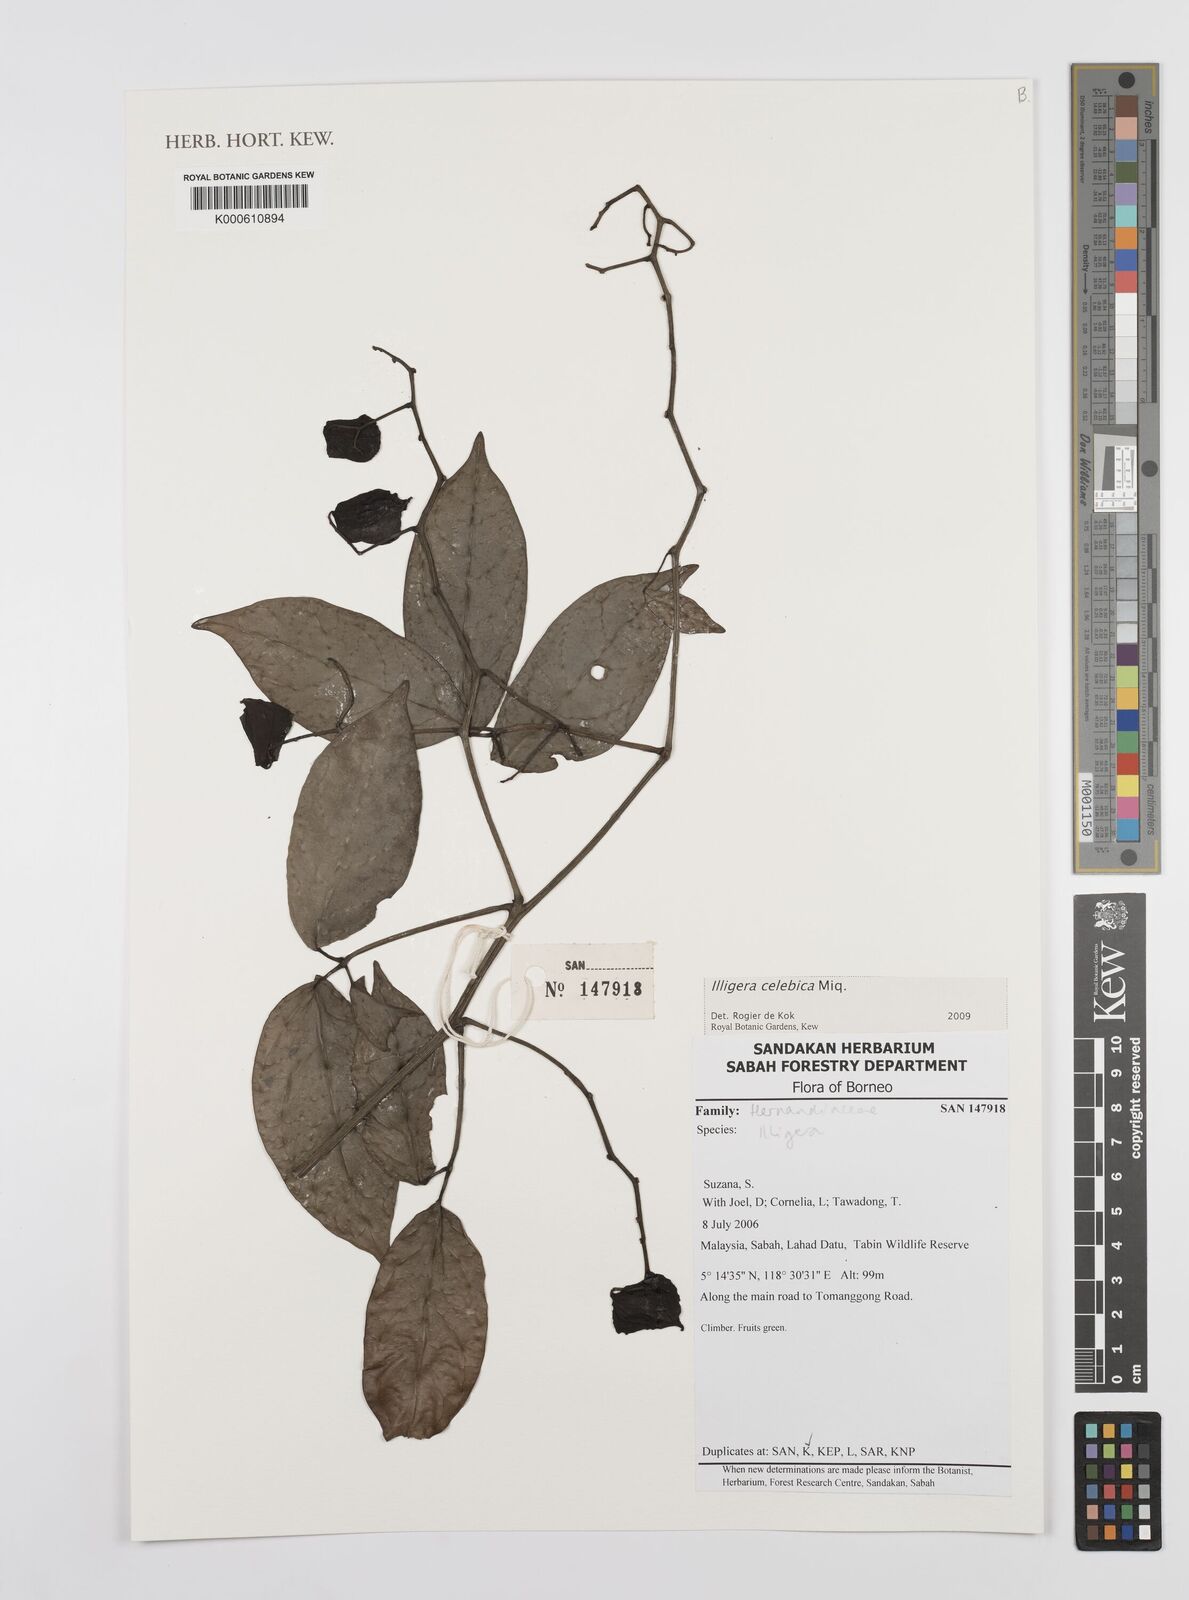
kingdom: Plantae
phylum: Tracheophyta
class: Magnoliopsida
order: Laurales
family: Hernandiaceae
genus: Illigera
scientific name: Illigera celebica
